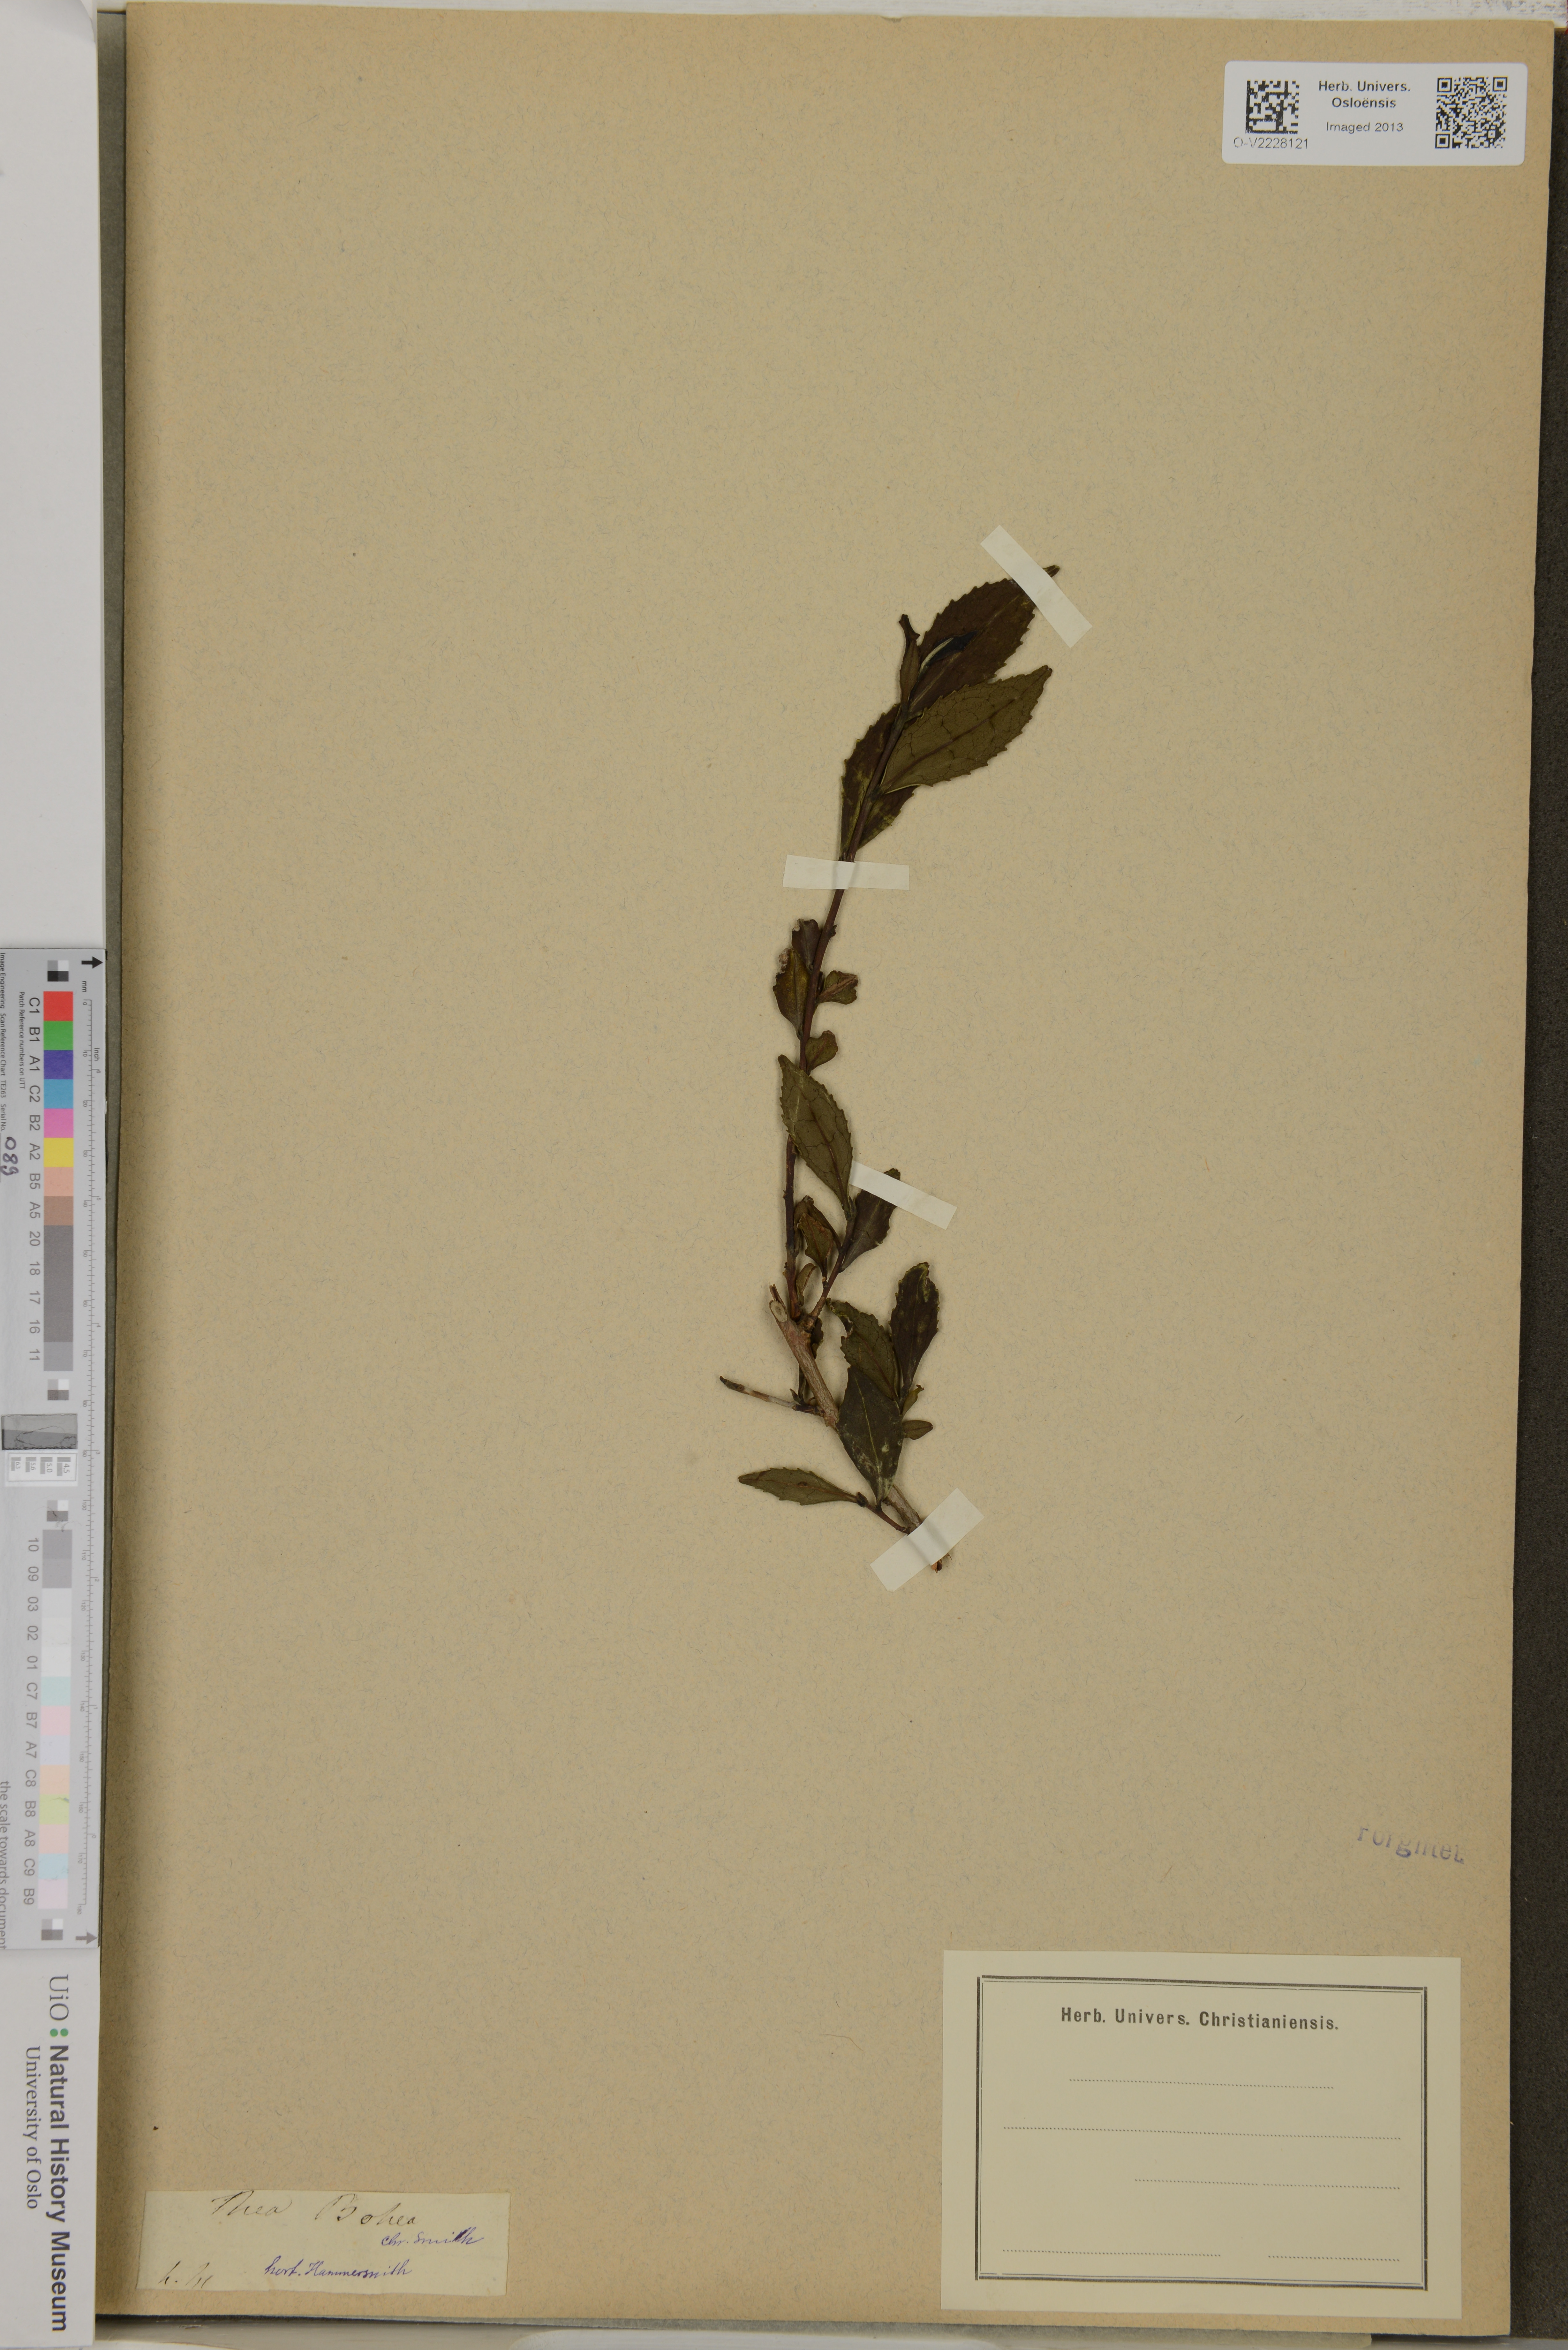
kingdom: Plantae
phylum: Tracheophyta
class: Magnoliopsida
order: Ericales
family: Theaceae
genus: Camellia
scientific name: Camellia sinensis
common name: Tea
